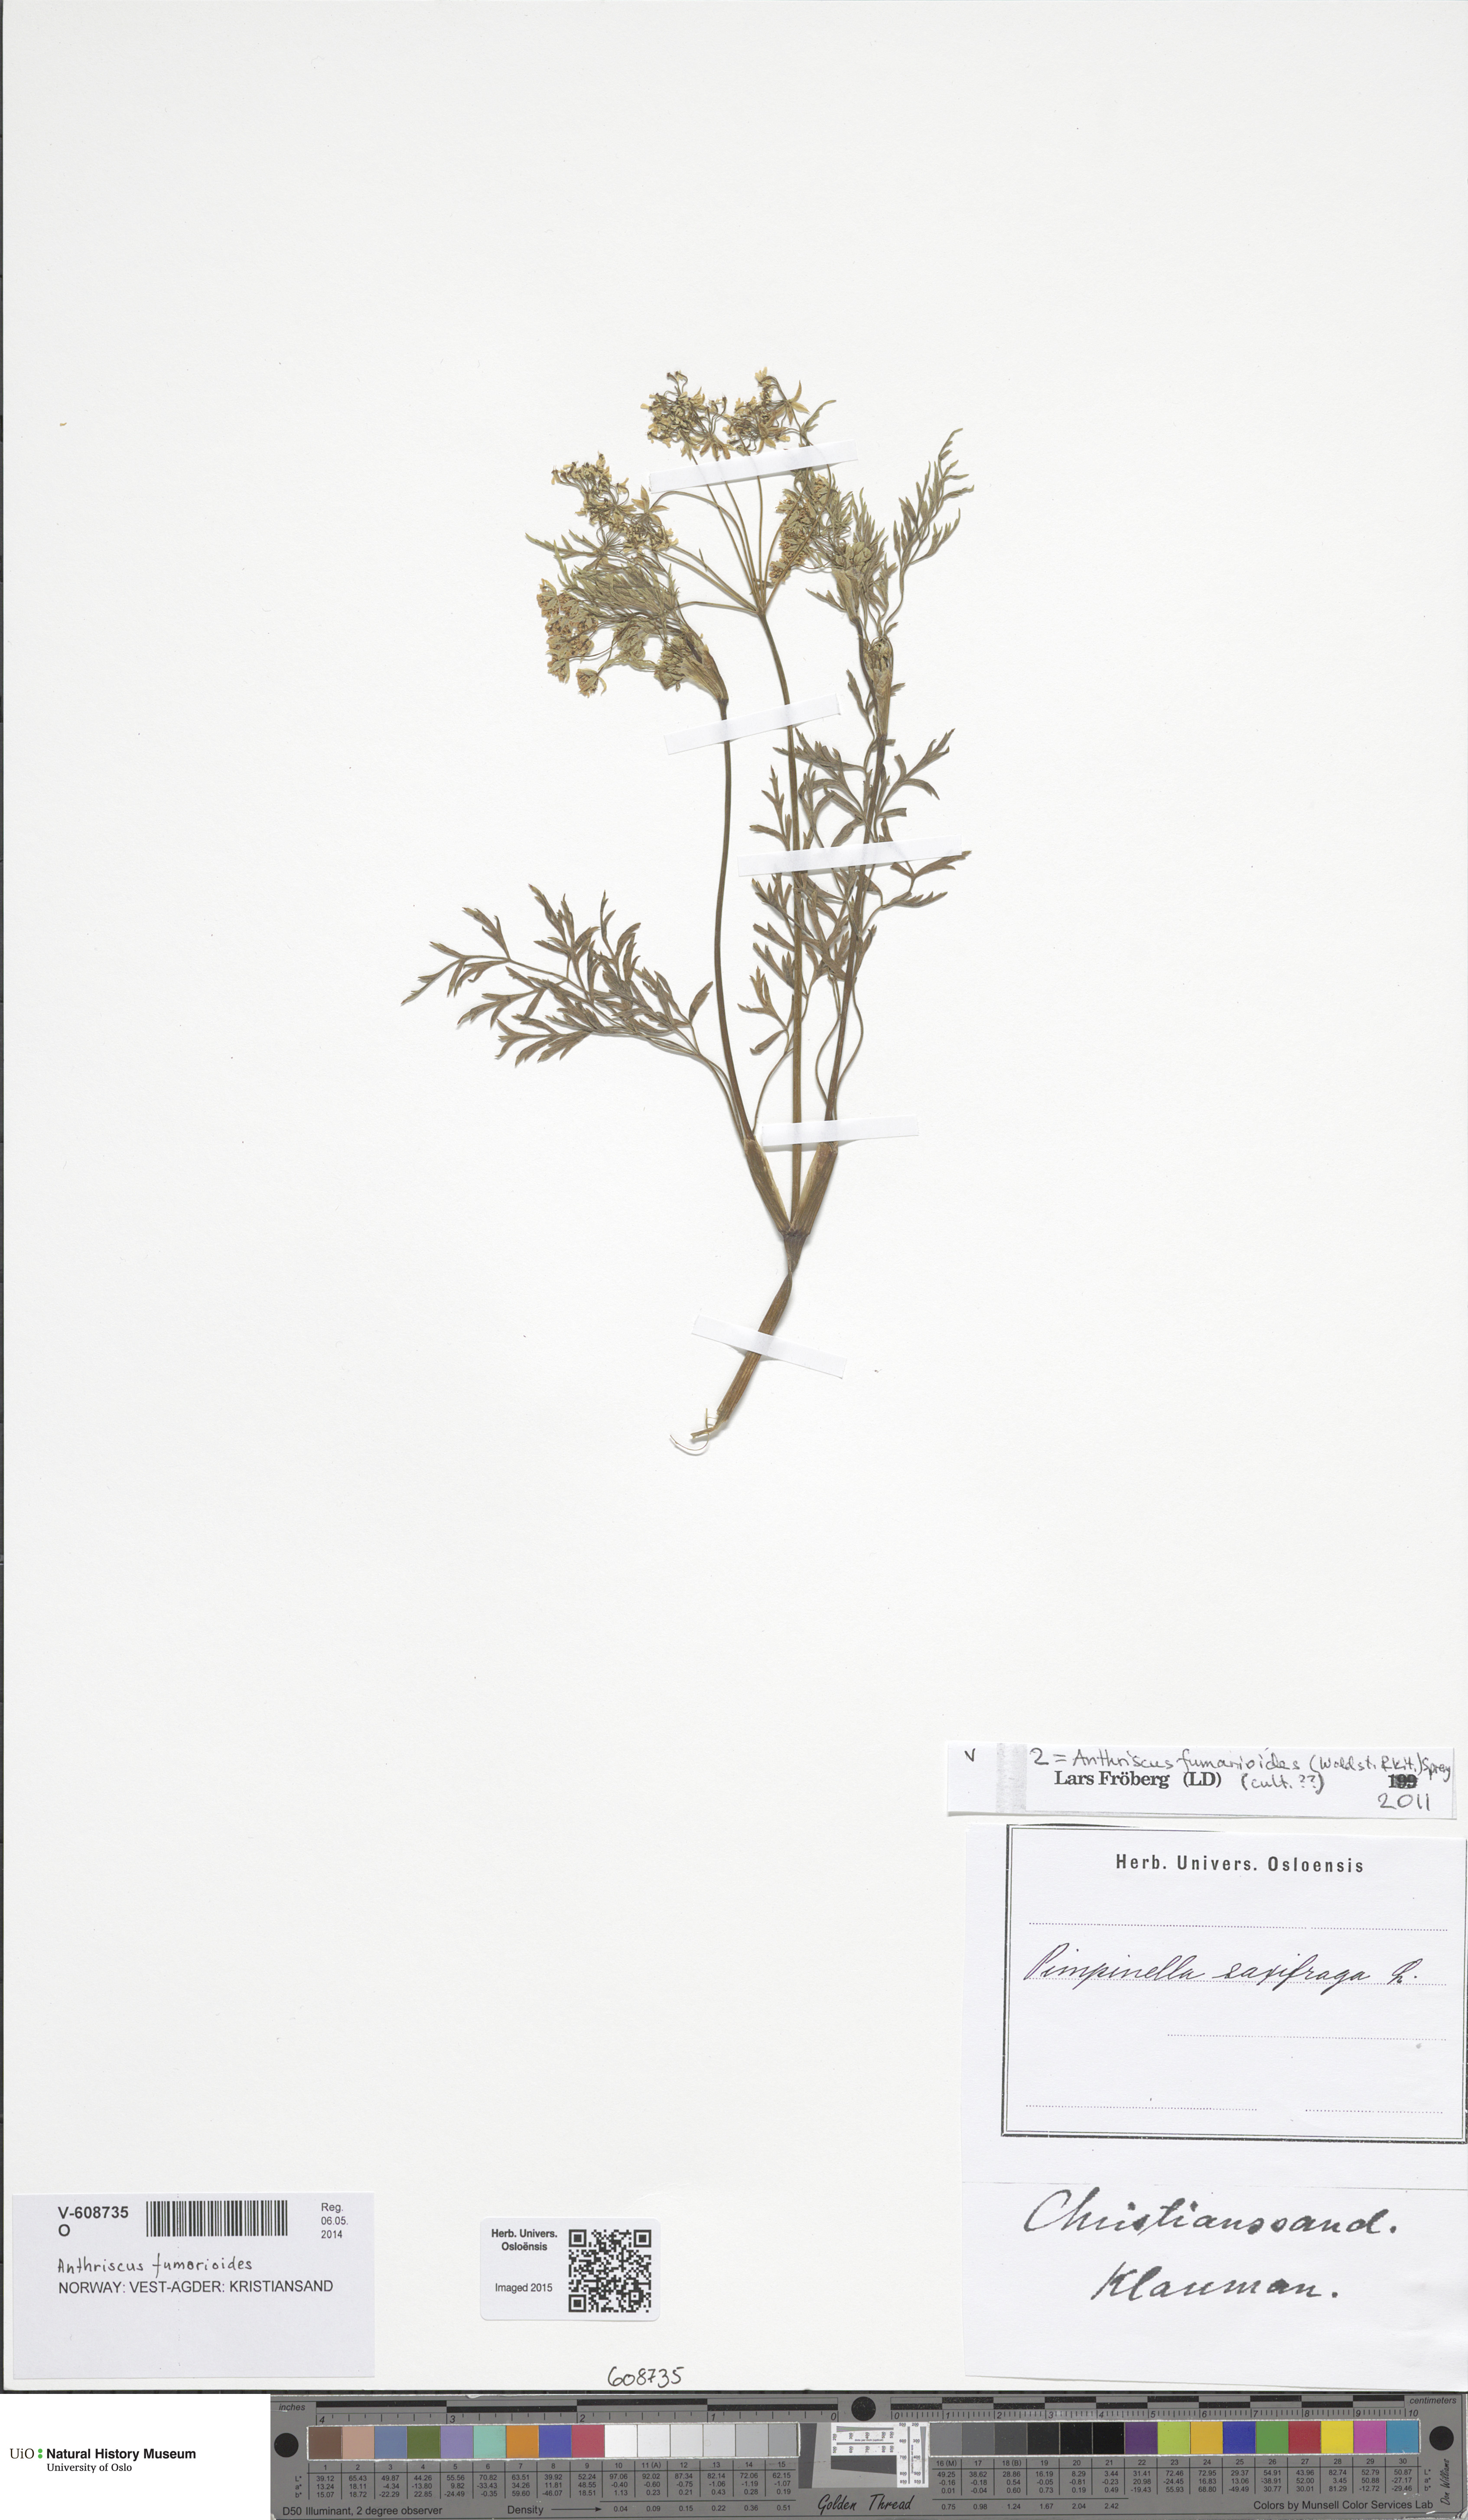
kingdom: Plantae
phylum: Tracheophyta
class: Magnoliopsida
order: Apiales
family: Apiaceae
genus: Anthriscus
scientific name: Anthriscus fumarioides
